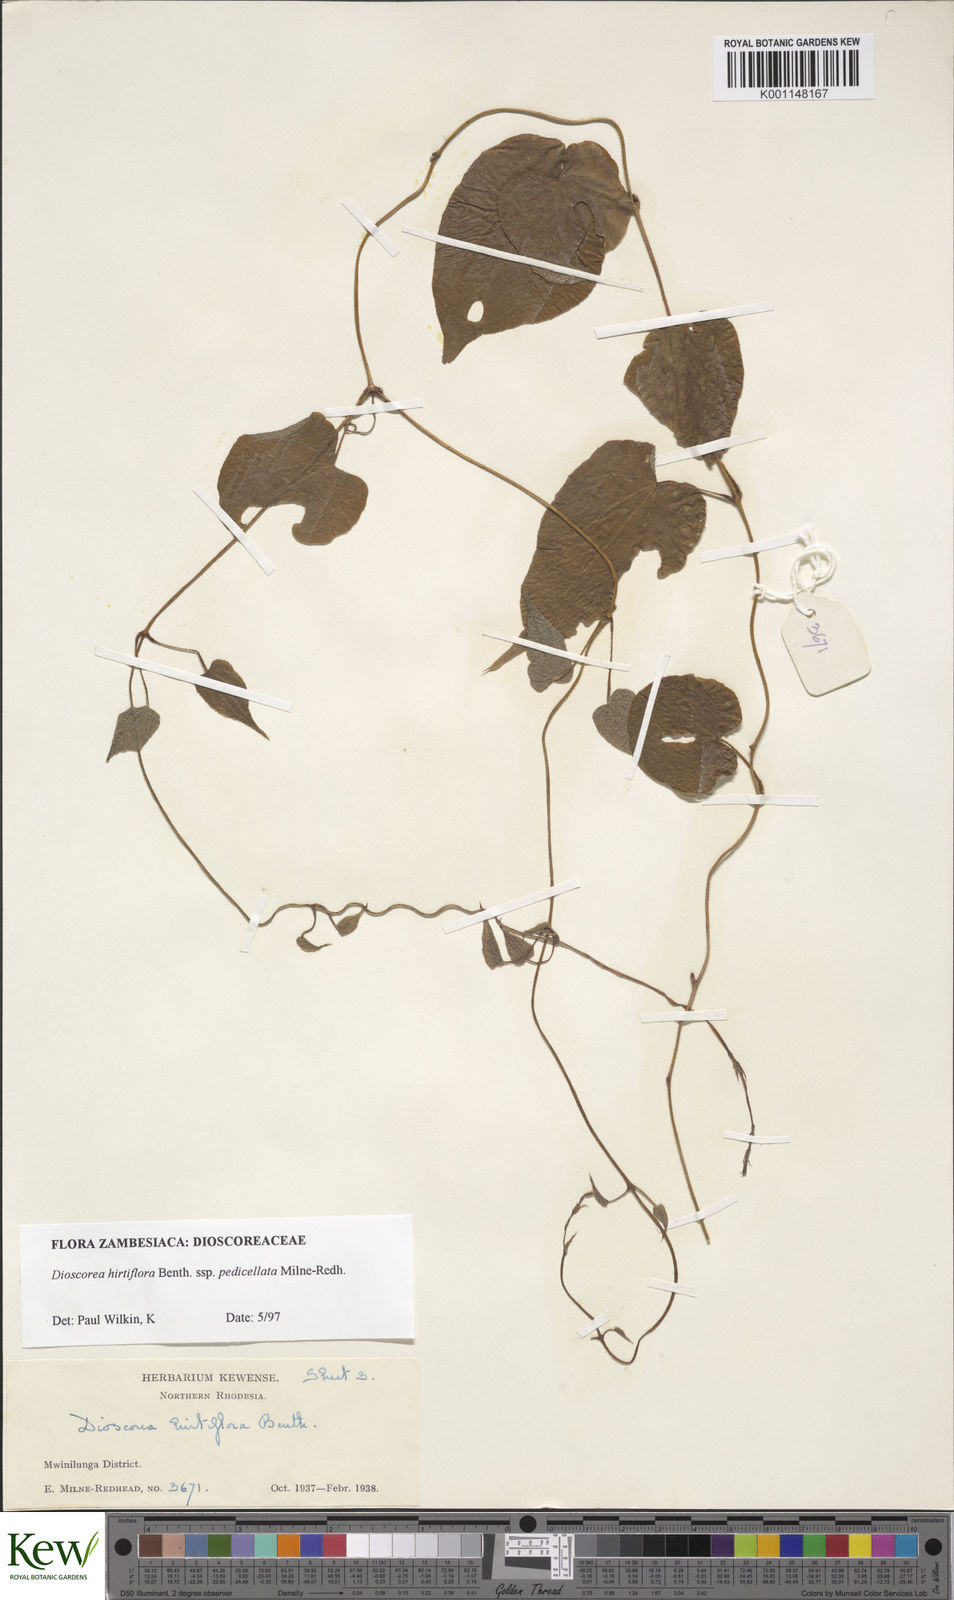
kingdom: Plantae
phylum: Tracheophyta
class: Liliopsida
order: Dioscoreales
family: Dioscoreaceae
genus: Dioscorea
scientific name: Dioscorea hirtiflora
